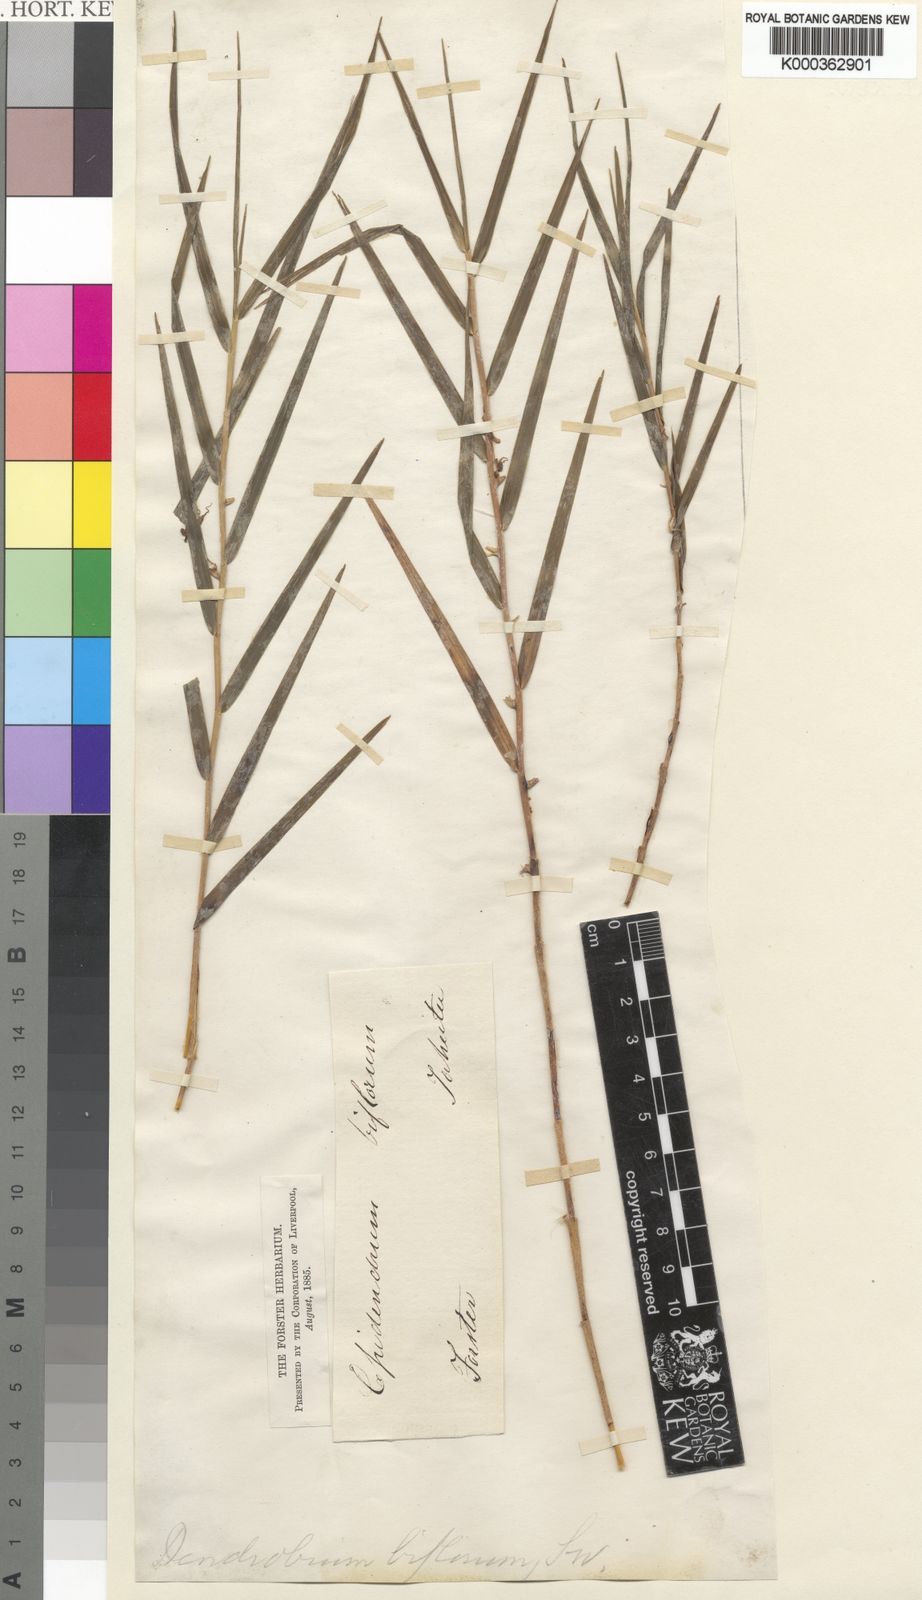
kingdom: Plantae
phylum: Tracheophyta
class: Liliopsida
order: Asparagales
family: Orchidaceae
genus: Dendrobium
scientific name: Dendrobium biflorum
